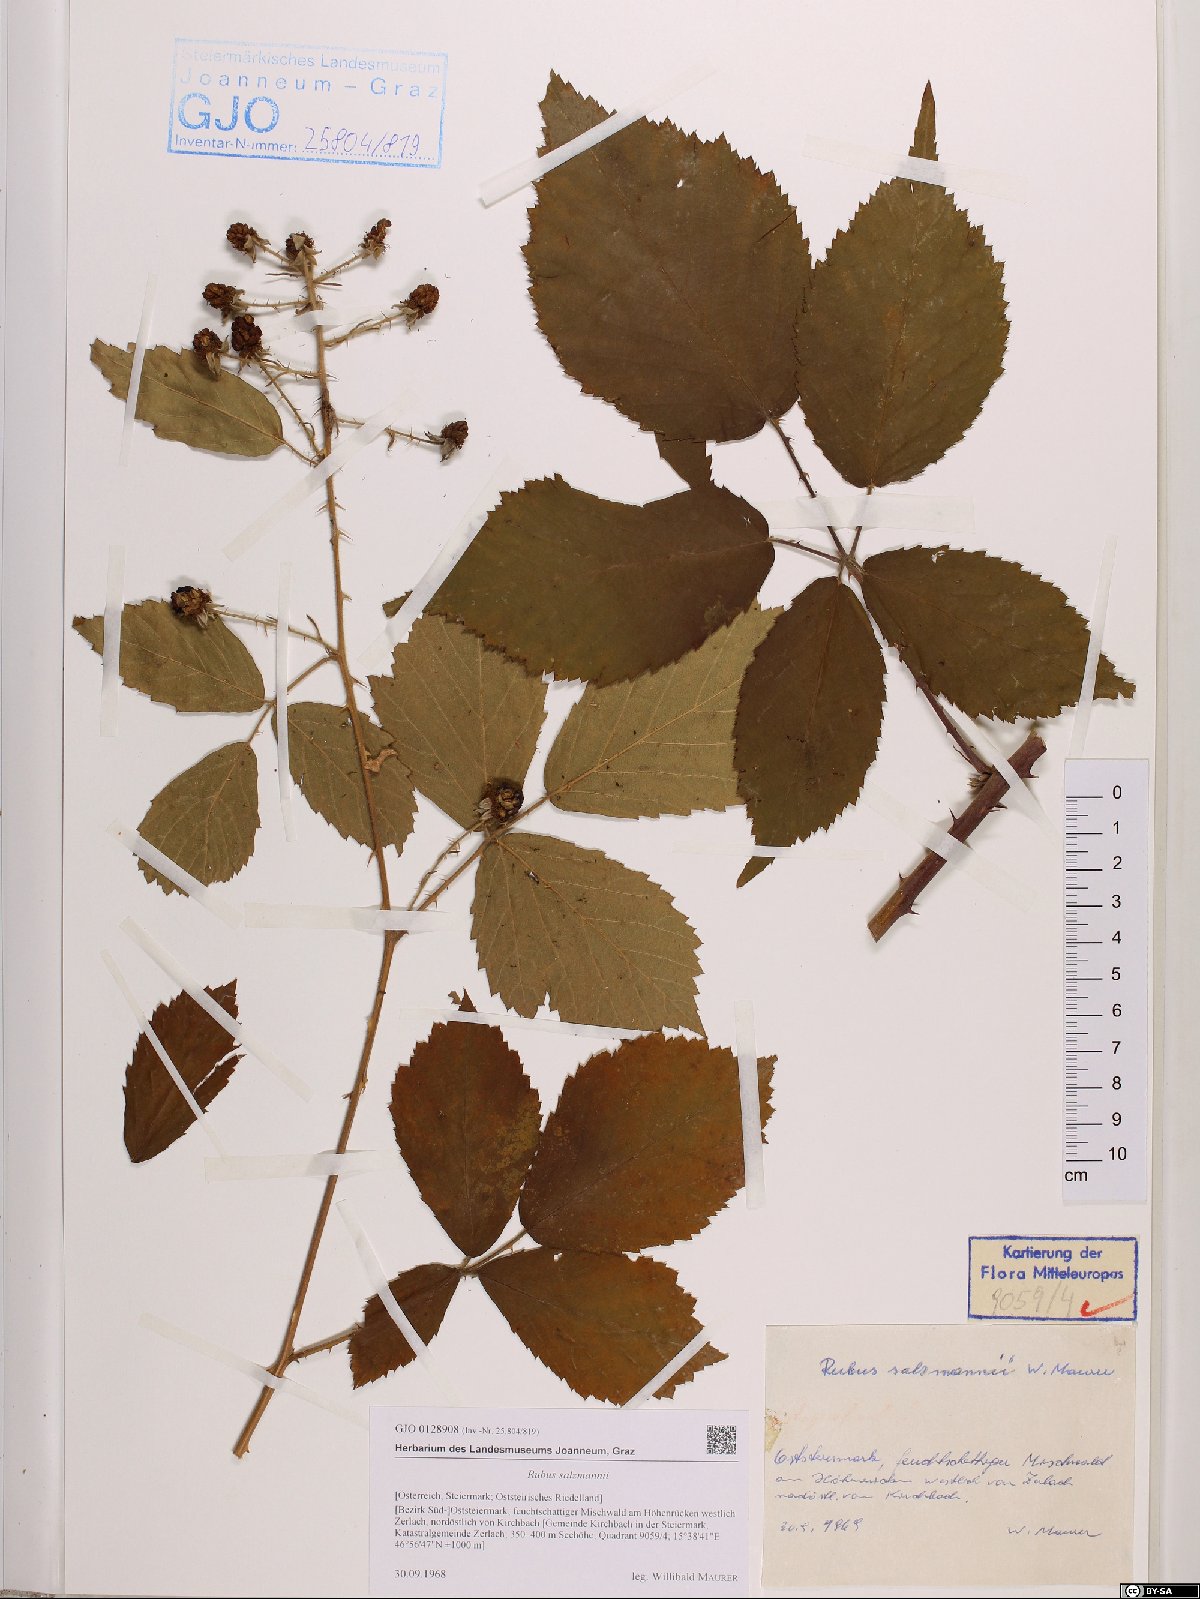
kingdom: Plantae
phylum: Tracheophyta
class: Magnoliopsida
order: Rosales
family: Rosaceae
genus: Rubus
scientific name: Rubus salzmannii
